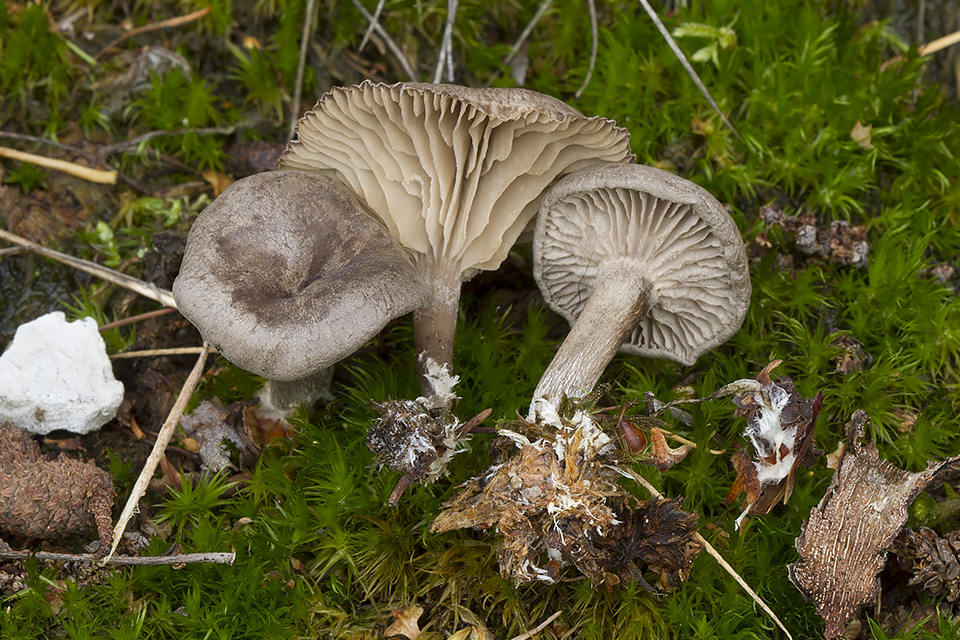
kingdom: Fungi
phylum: Basidiomycota
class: Agaricomycetes
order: Agaricales
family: Entolomataceae
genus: Clitopilus
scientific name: Clitopilus caelatus
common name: gråbrun troldhat
